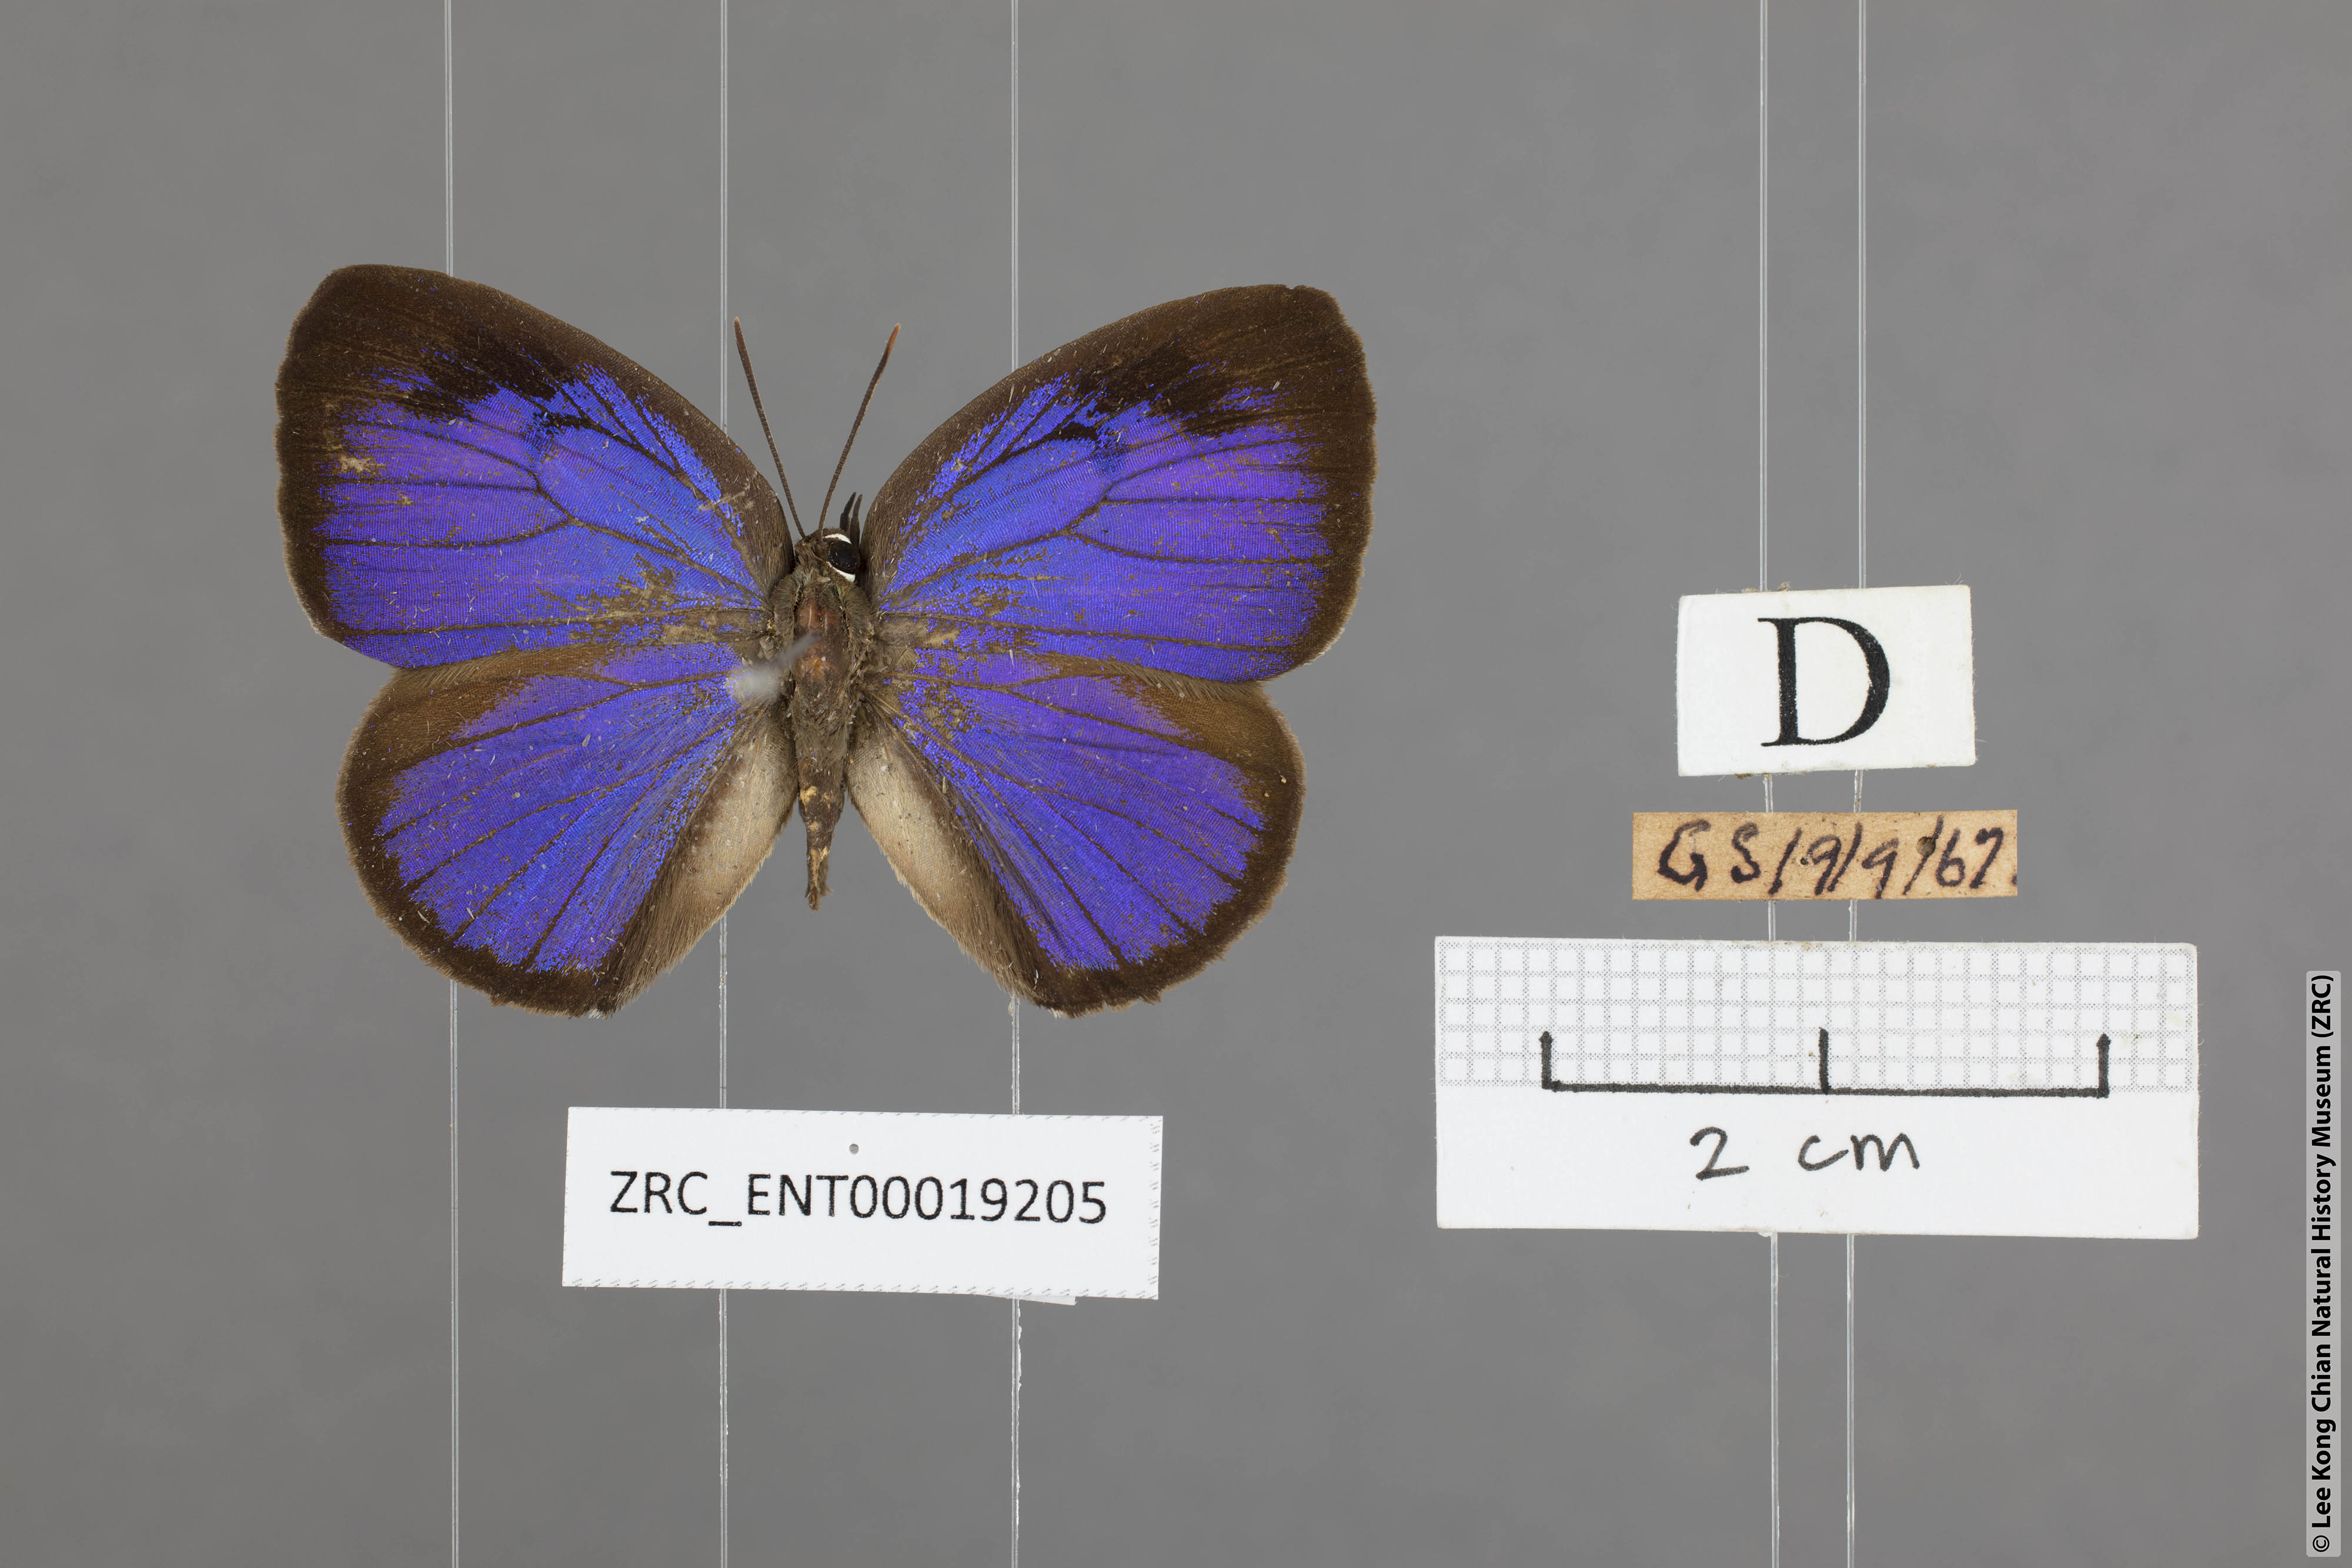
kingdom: Animalia
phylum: Arthropoda
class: Insecta
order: Lepidoptera
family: Lycaenidae
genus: Arhopala
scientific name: Arhopala arvina
